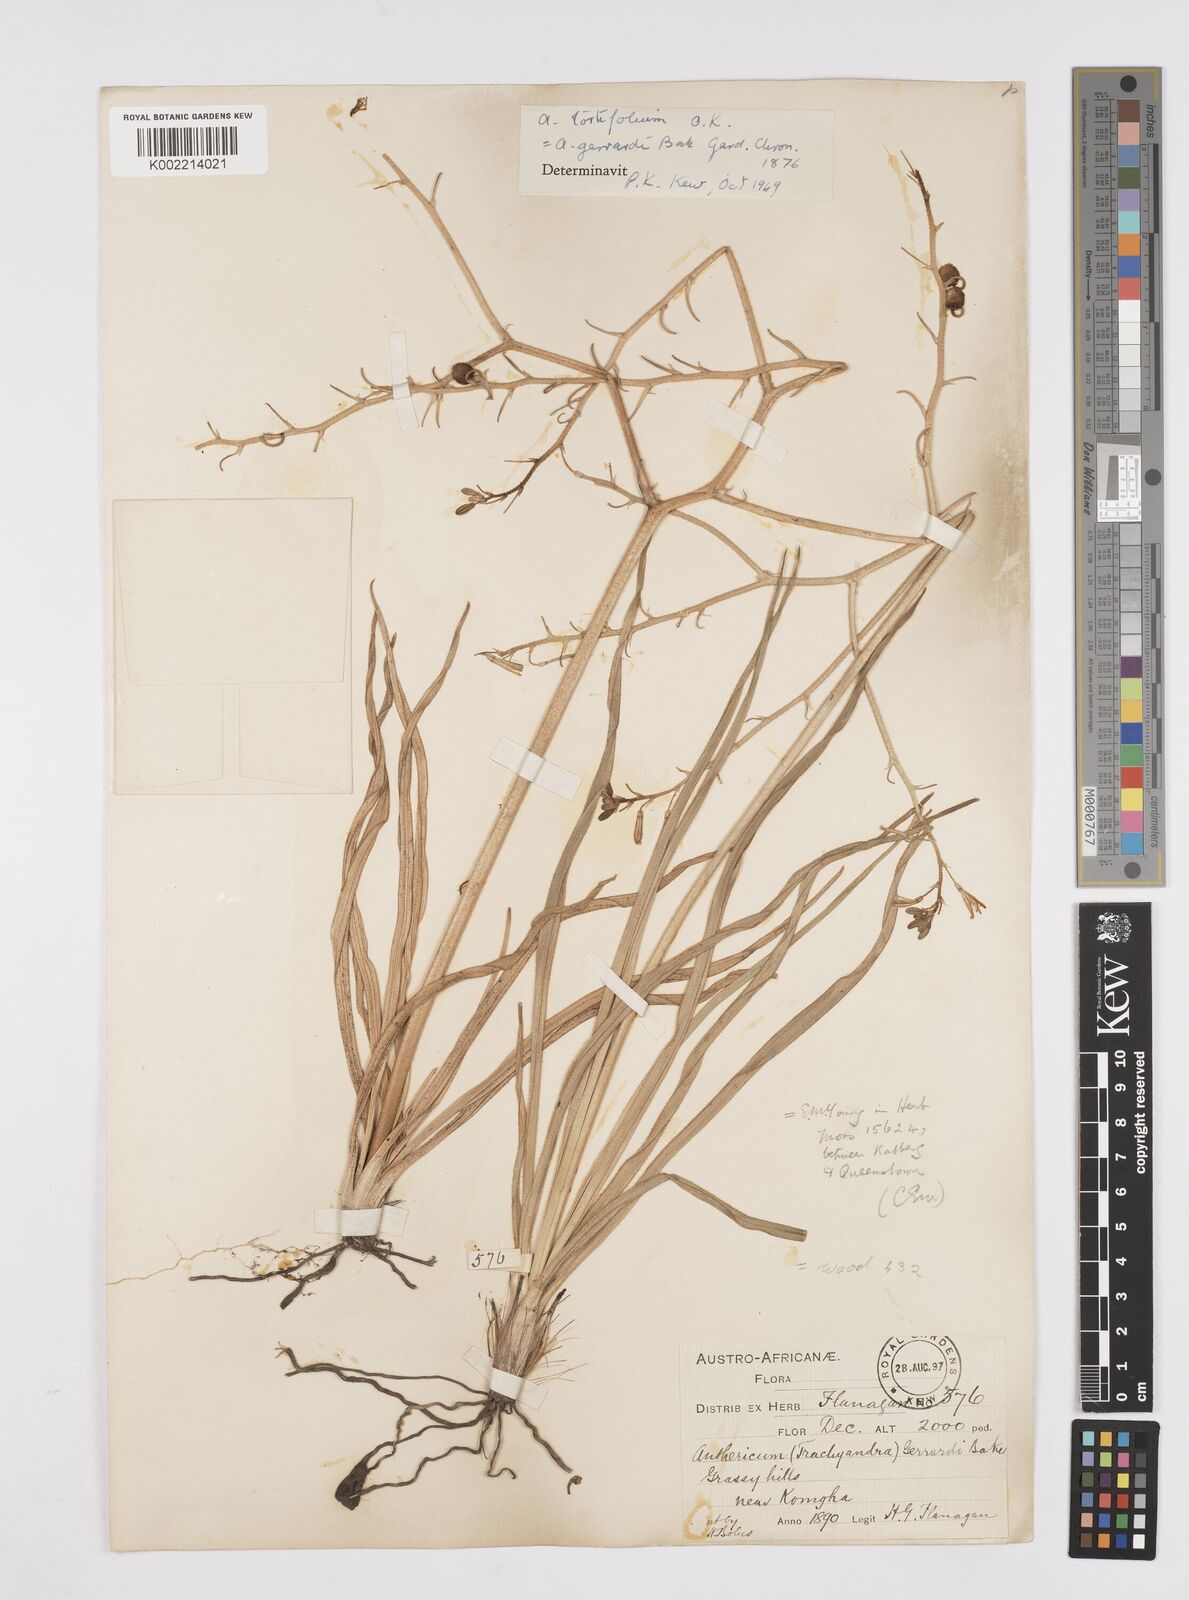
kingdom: Plantae
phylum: Tracheophyta
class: Liliopsida
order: Asparagales
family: Asphodelaceae
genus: Trachyandra
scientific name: Trachyandra gerrardii
